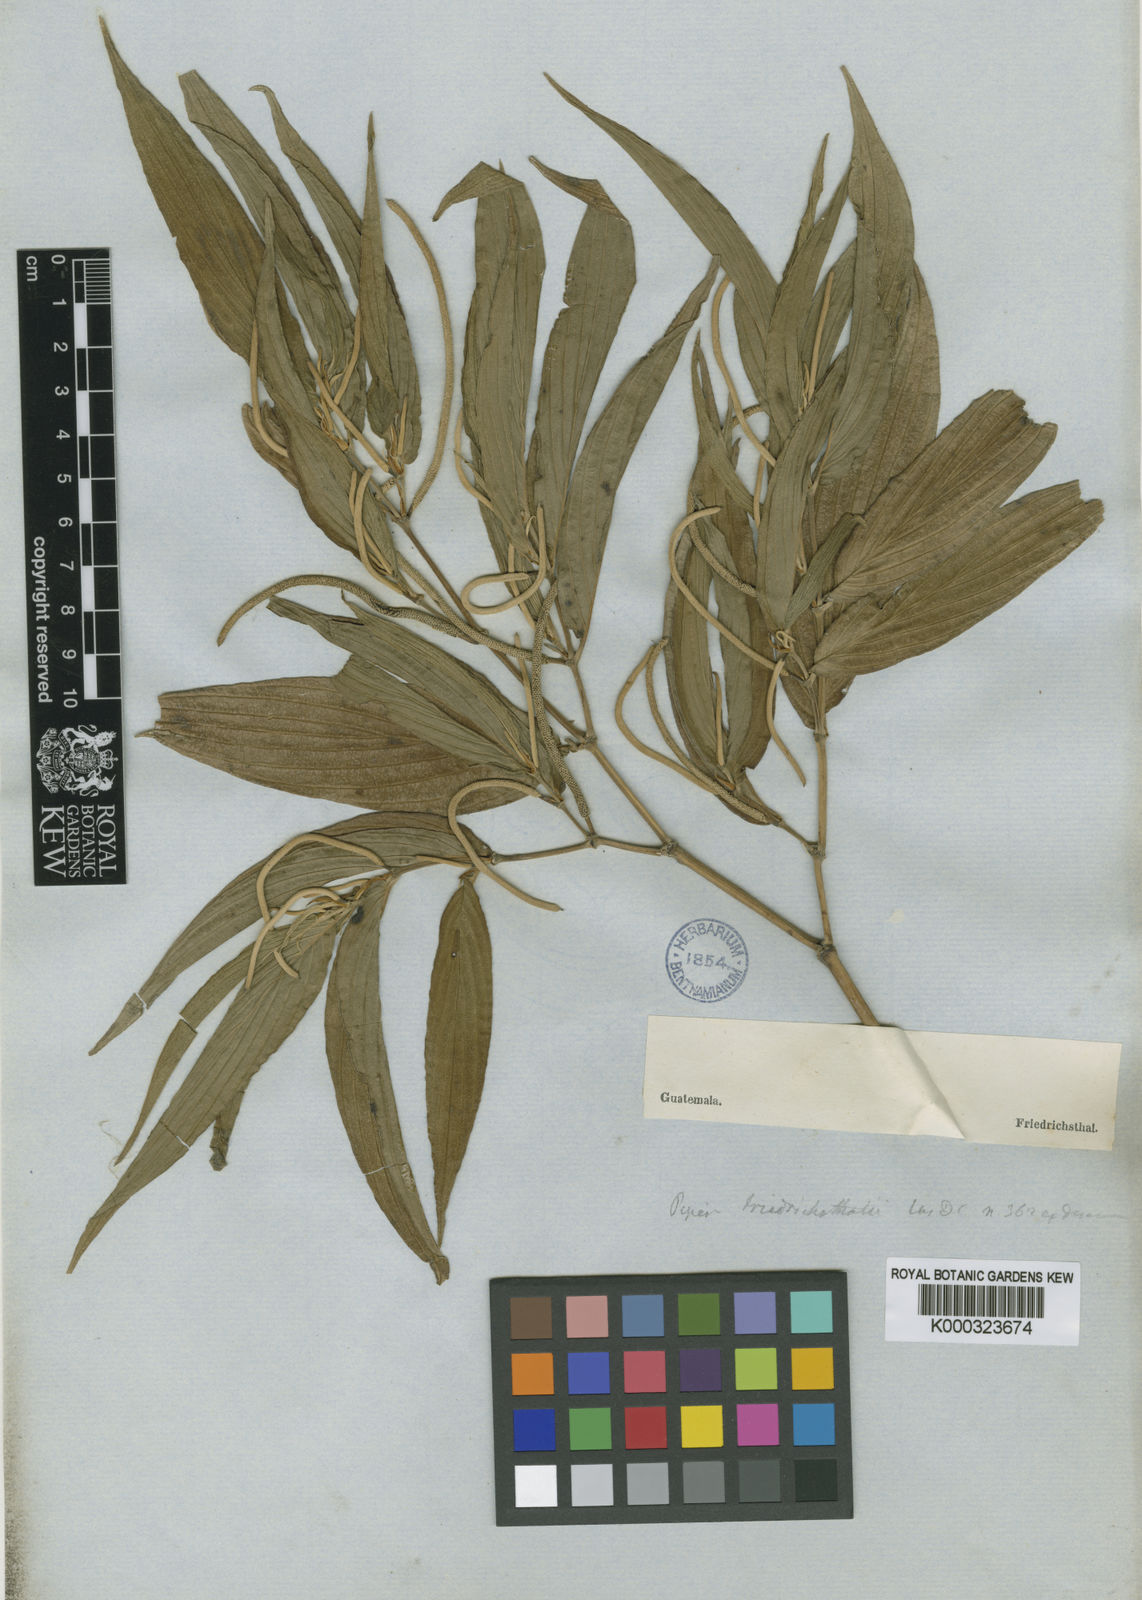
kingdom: Plantae
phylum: Tracheophyta
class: Magnoliopsida
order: Piperales
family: Piperaceae
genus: Piper
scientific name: Piper friedrichsthalii
